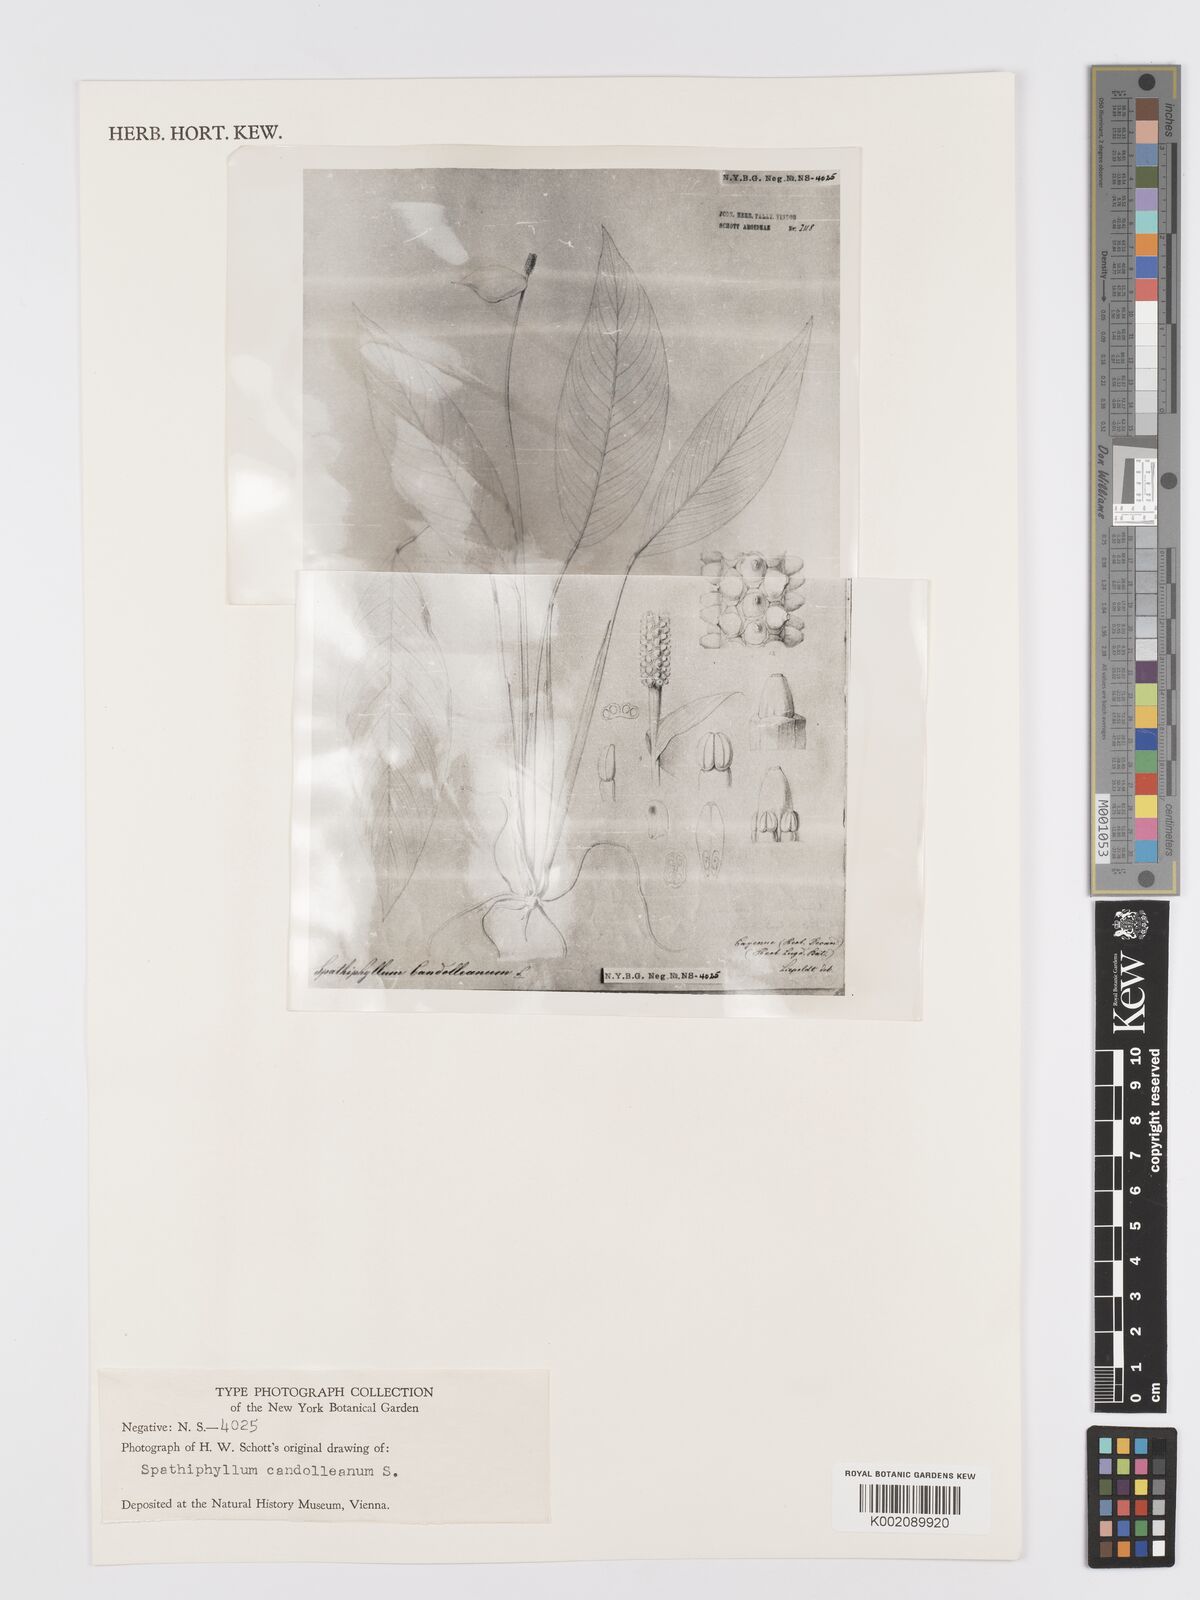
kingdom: Plantae
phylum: Tracheophyta
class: Liliopsida
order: Alismatales
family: Araceae
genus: Spathiphyllum
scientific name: Spathiphyllum humboldtii
